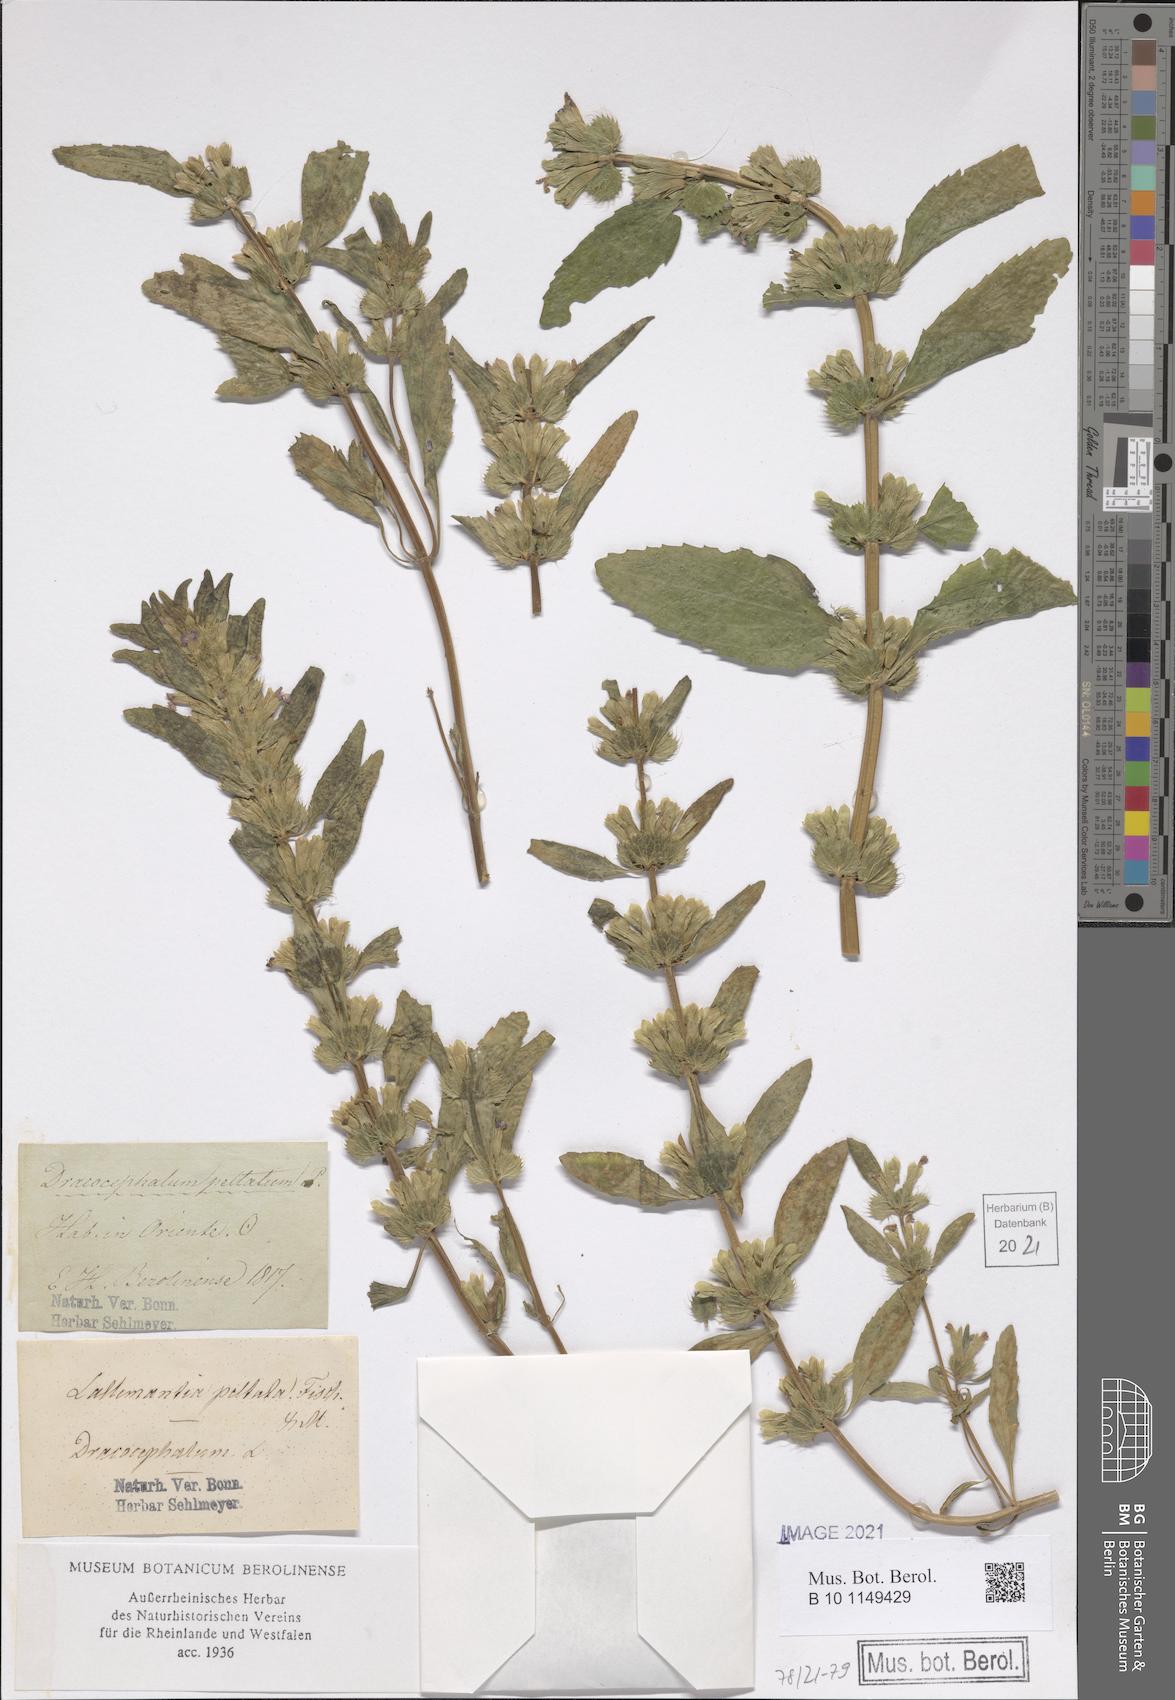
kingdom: Plantae
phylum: Tracheophyta
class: Magnoliopsida
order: Lamiales
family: Lamiaceae
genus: Lallemantia
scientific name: Lallemantia peltata
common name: Lion's heart
